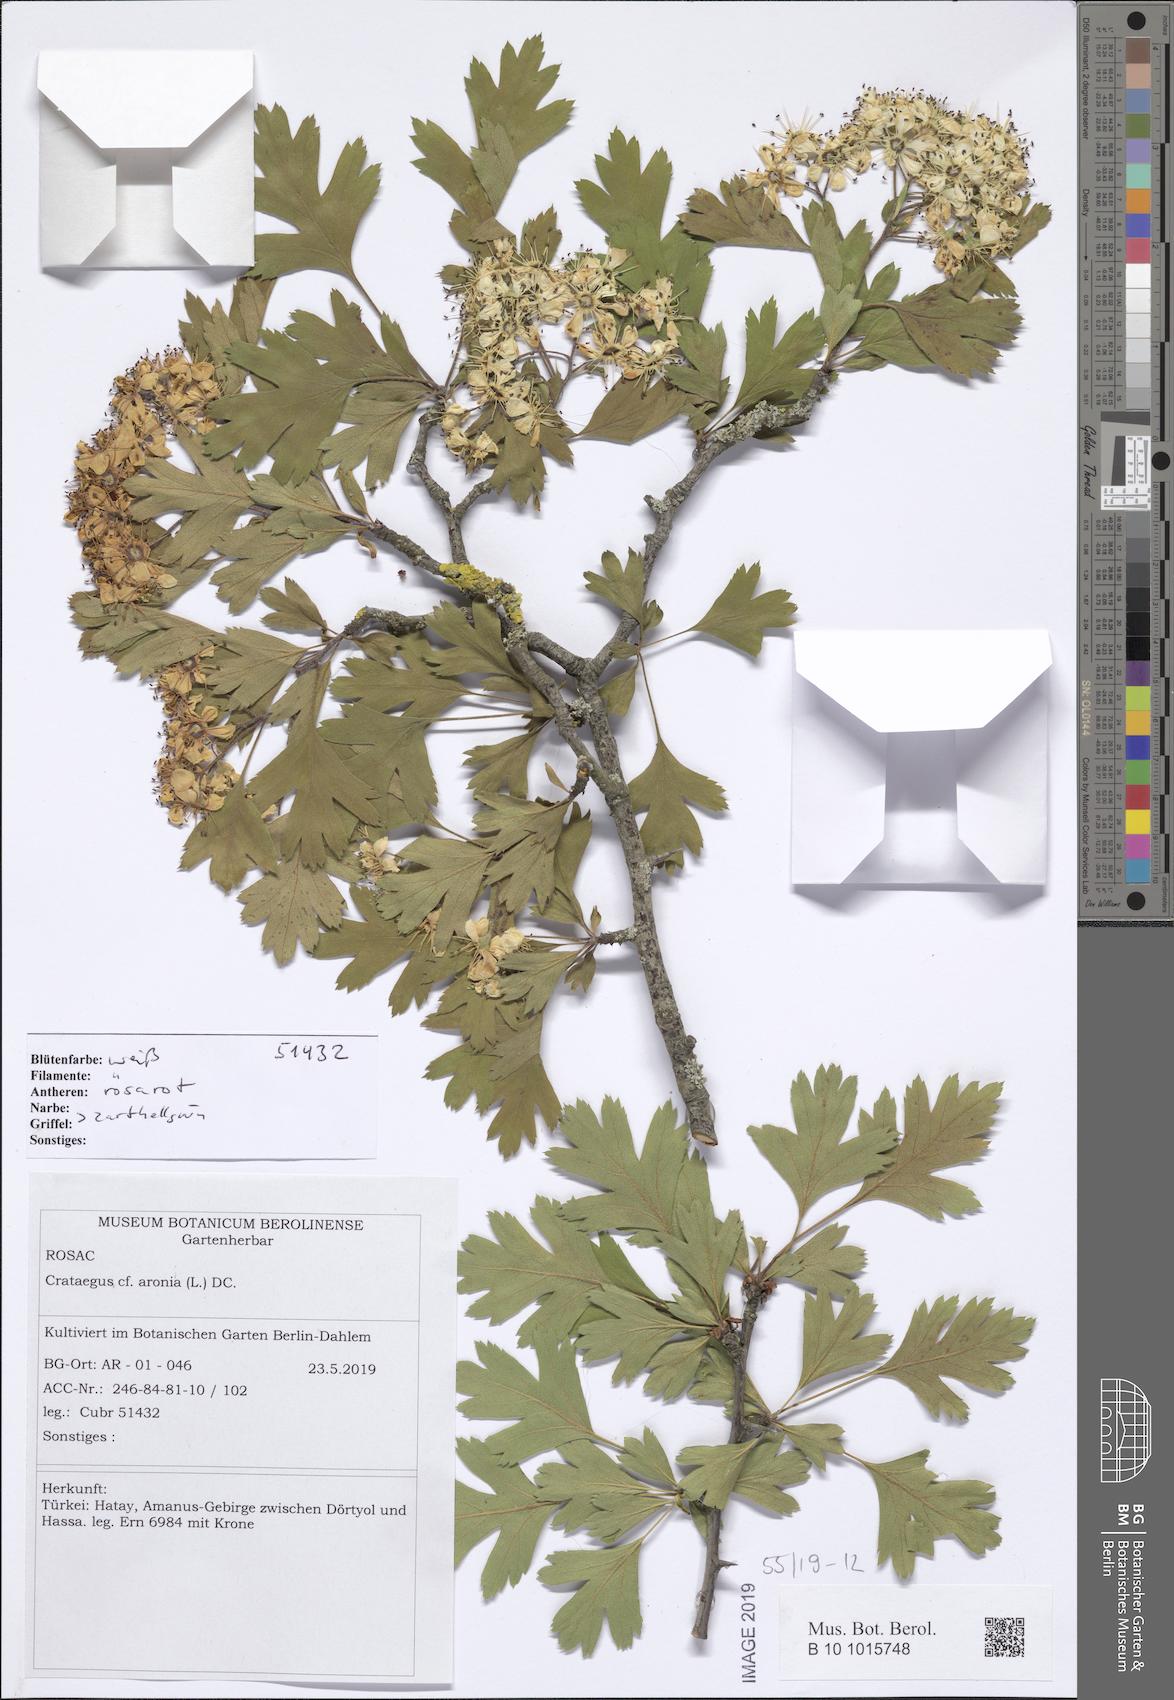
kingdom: Plantae
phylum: Tracheophyta
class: Magnoliopsida
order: Rosales
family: Rosaceae
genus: Crataegus
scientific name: Crataegus azarolus
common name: Azarole
